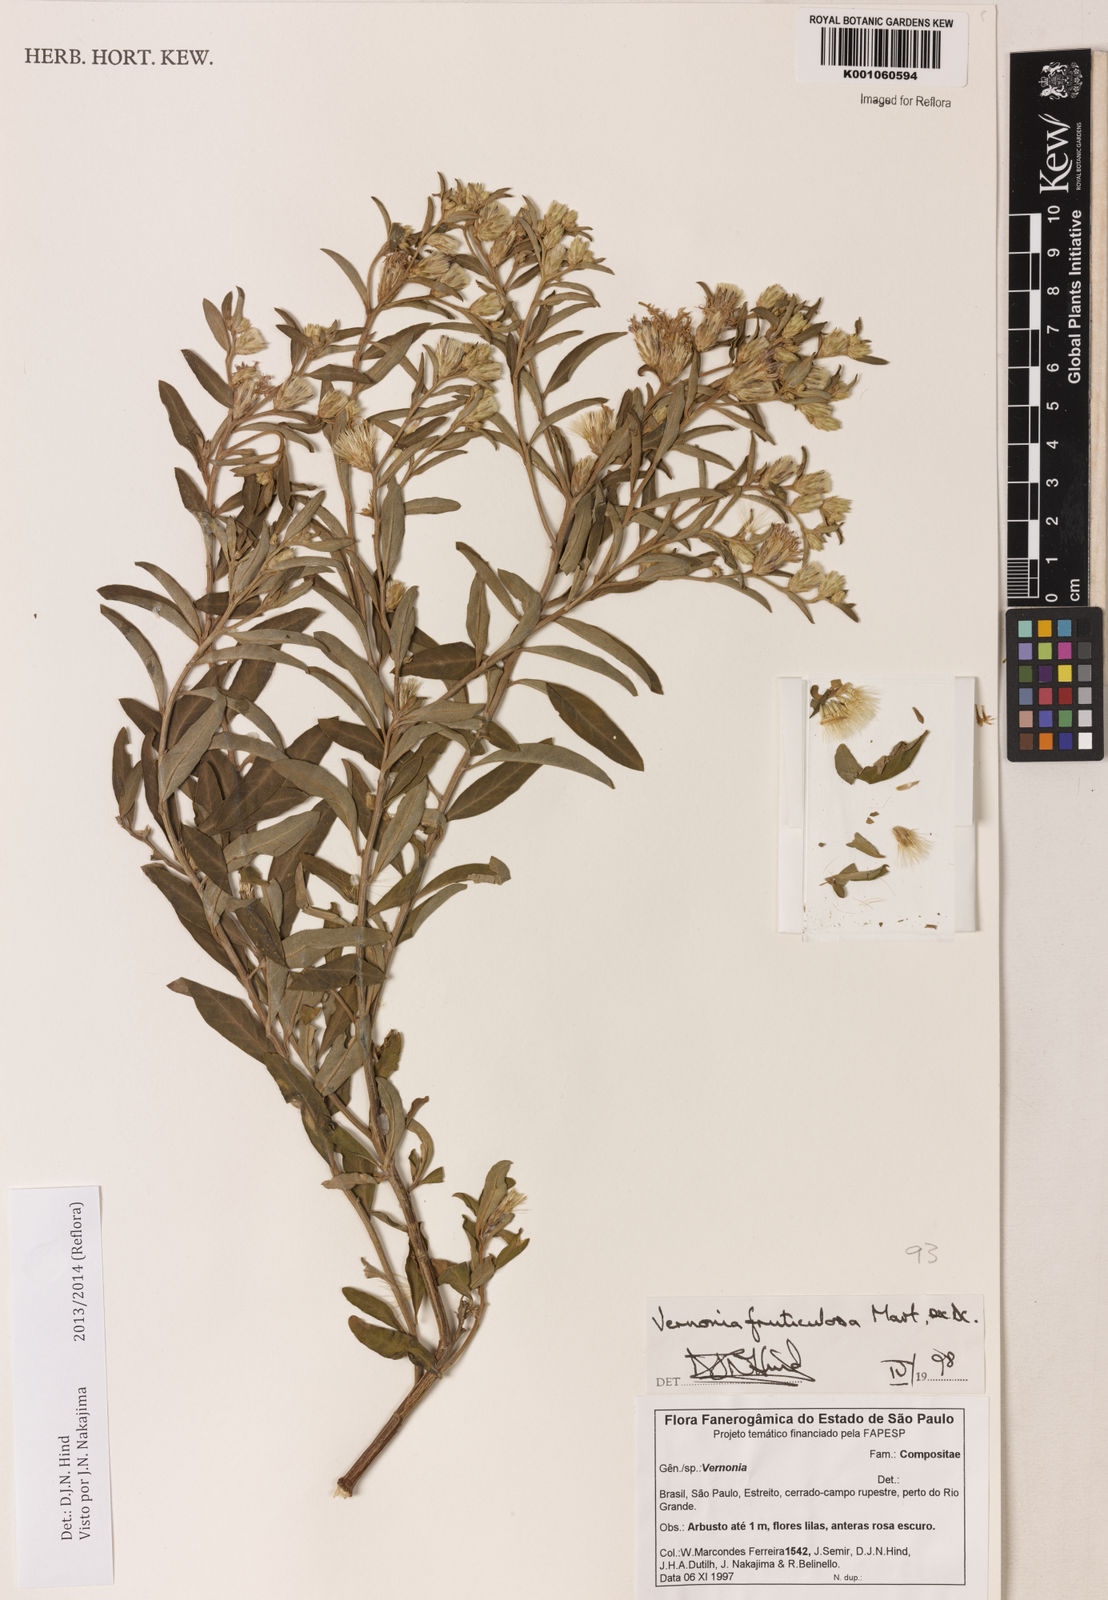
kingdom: Plantae
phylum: Tracheophyta
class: Magnoliopsida
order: Asterales
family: Asteraceae
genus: Lepidaploa
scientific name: Lepidaploa rufogrisea
